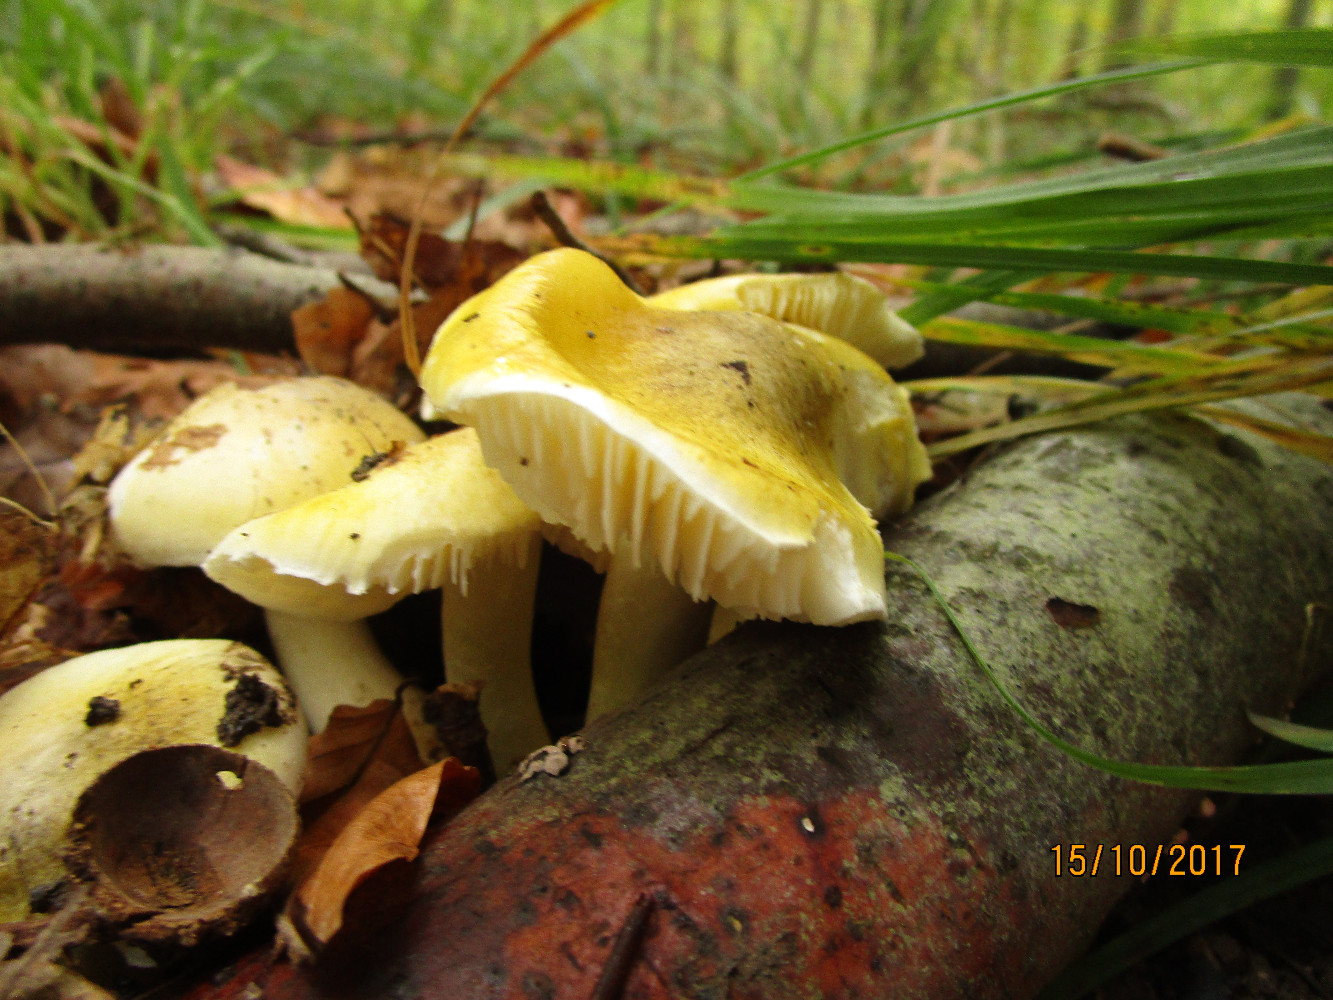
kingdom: Fungi
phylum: Basidiomycota
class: Agaricomycetes
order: Agaricales
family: Tricholomataceae
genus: Tricholoma
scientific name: Tricholoma sejunctum
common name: grøngul ridderhat
